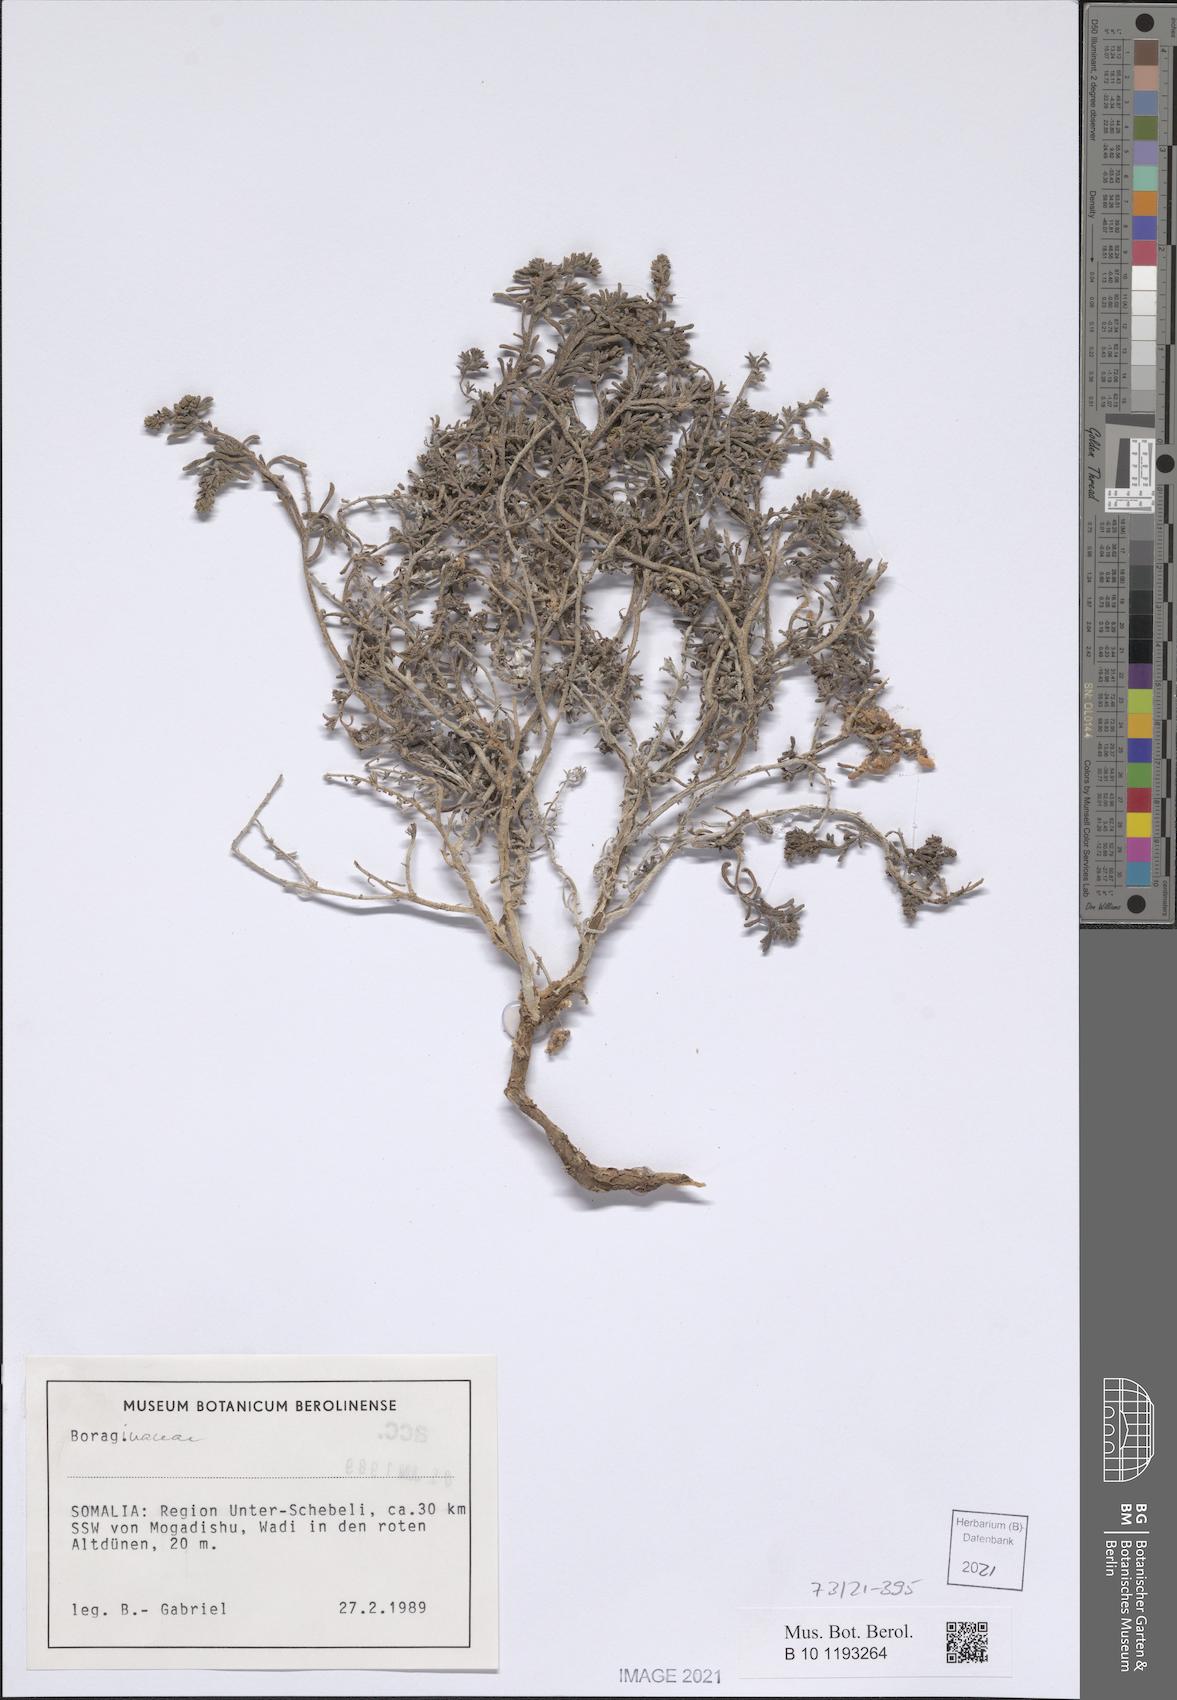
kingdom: Plantae
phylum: Tracheophyta
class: Magnoliopsida
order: Boraginales
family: Boraginaceae
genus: Echiochilon
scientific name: Echiochilon arenarium
